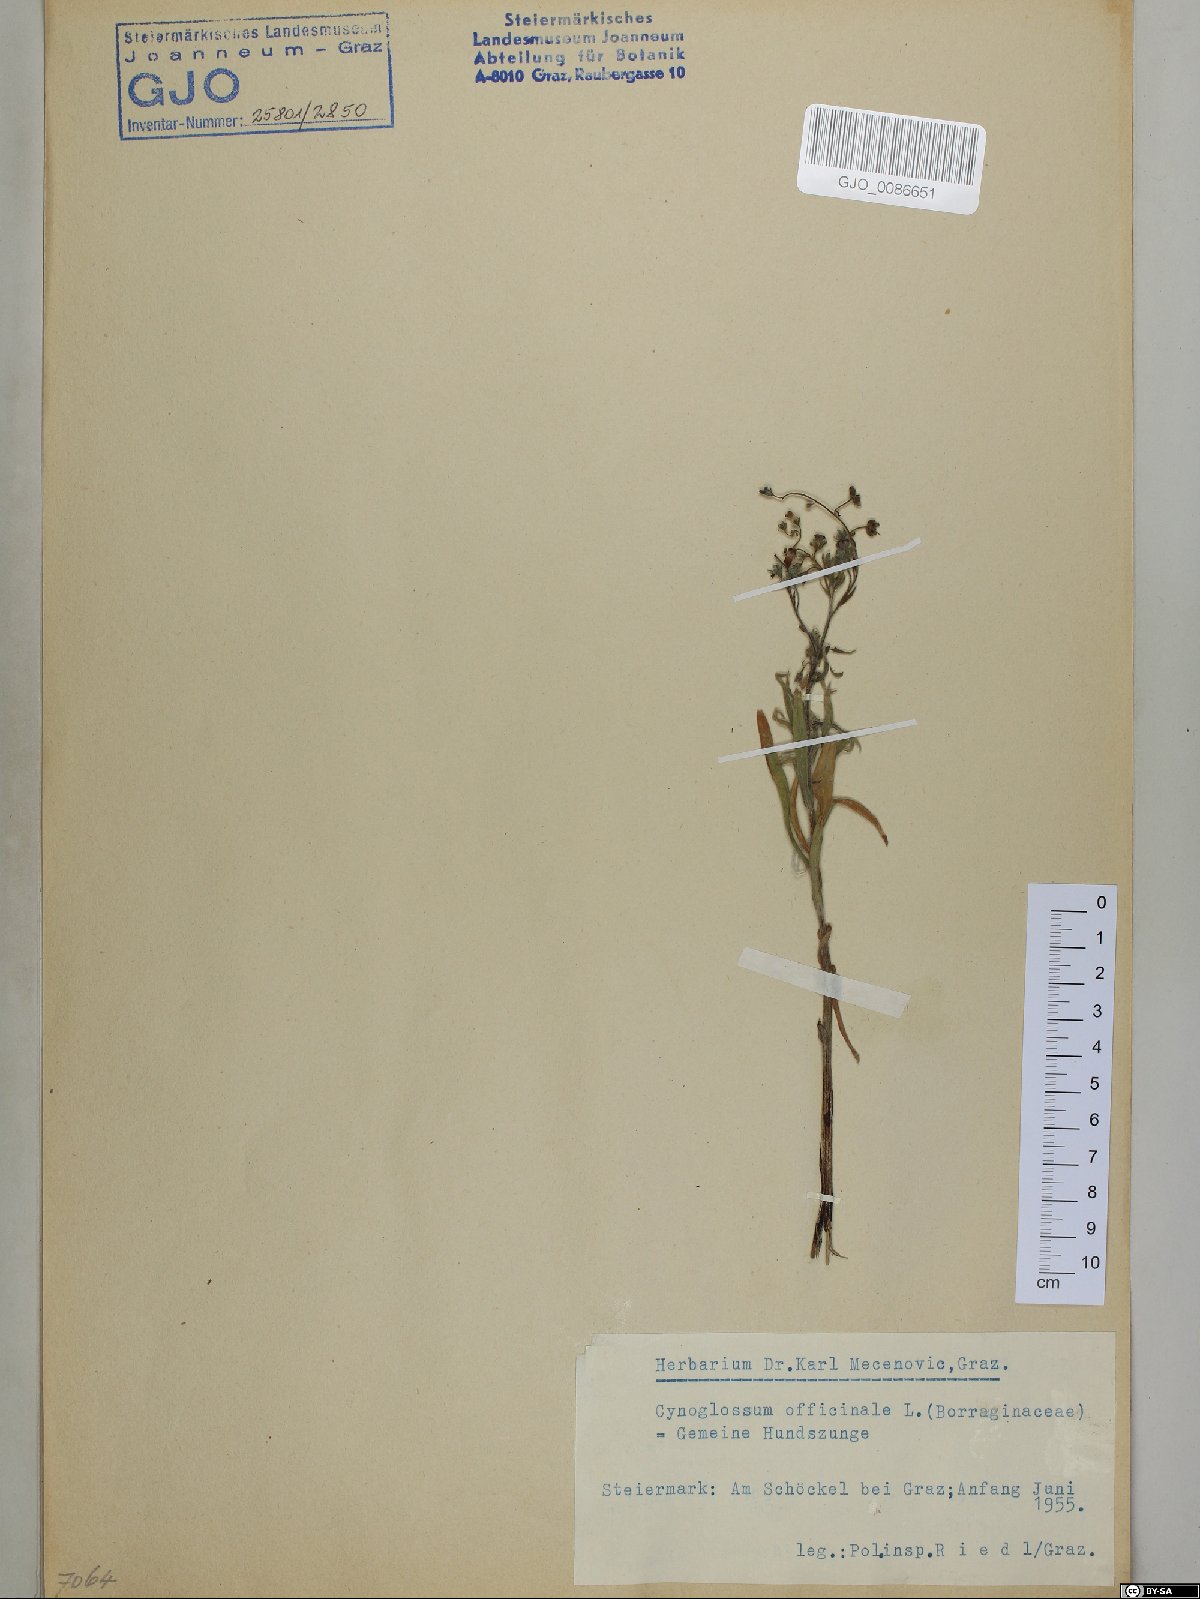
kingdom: Plantae
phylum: Tracheophyta
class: Magnoliopsida
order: Boraginales
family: Boraginaceae
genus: Cynoglossum
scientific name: Cynoglossum officinale
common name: Hound's-tongue
